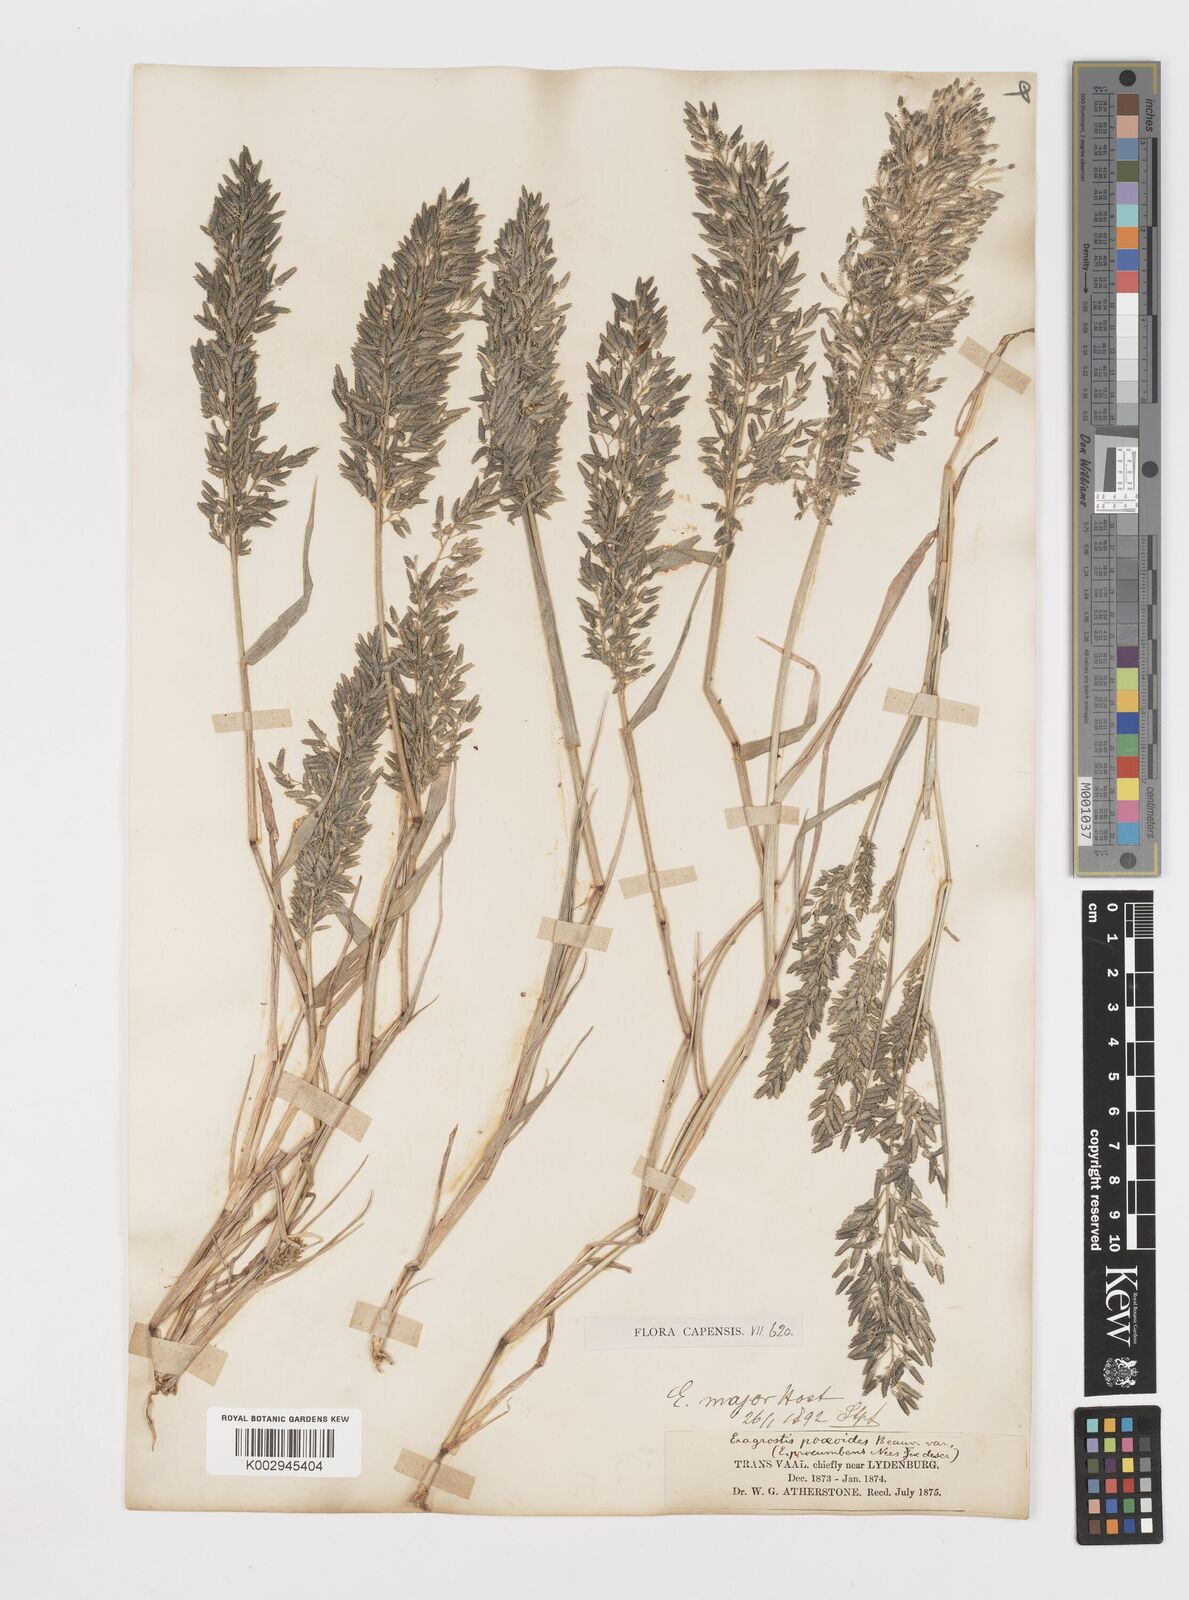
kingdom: Plantae
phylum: Tracheophyta
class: Liliopsida
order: Poales
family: Poaceae
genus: Eragrostis
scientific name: Eragrostis cilianensis
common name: Stinkgrass
